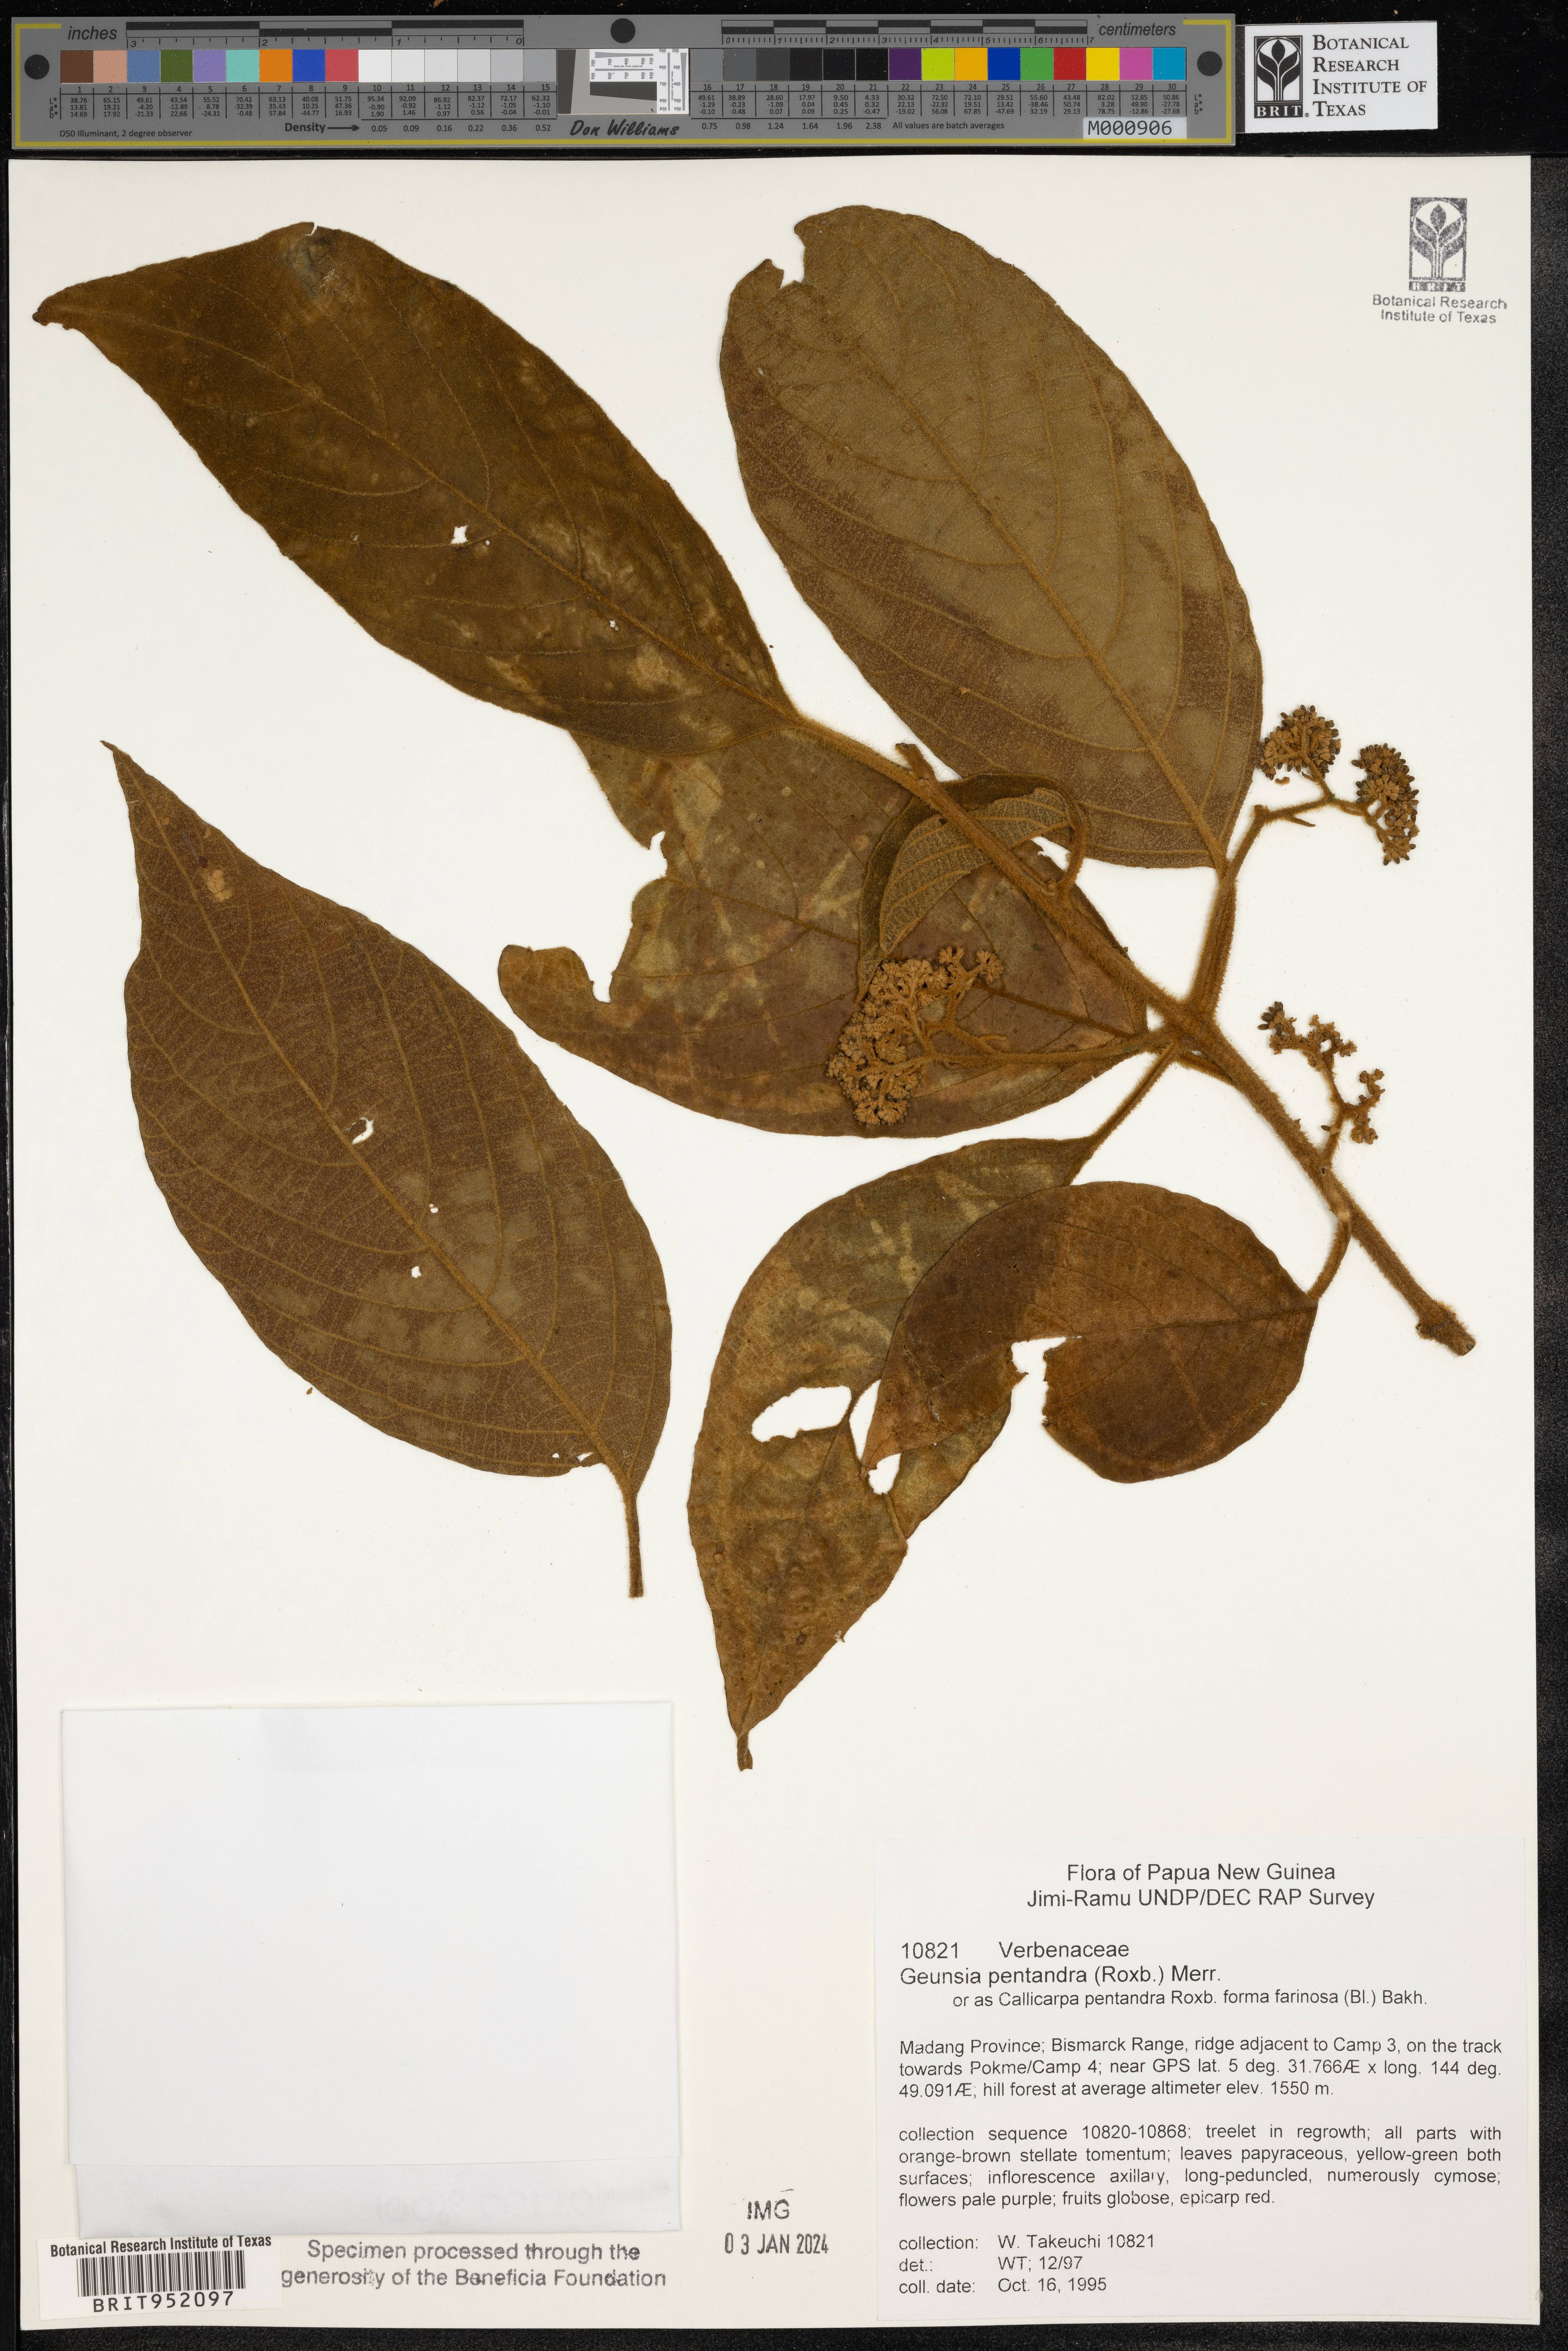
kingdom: Plantae
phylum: Tracheophyta
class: Magnoliopsida
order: Lamiales
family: Lamiaceae
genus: Callicarpa
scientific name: Callicarpa
